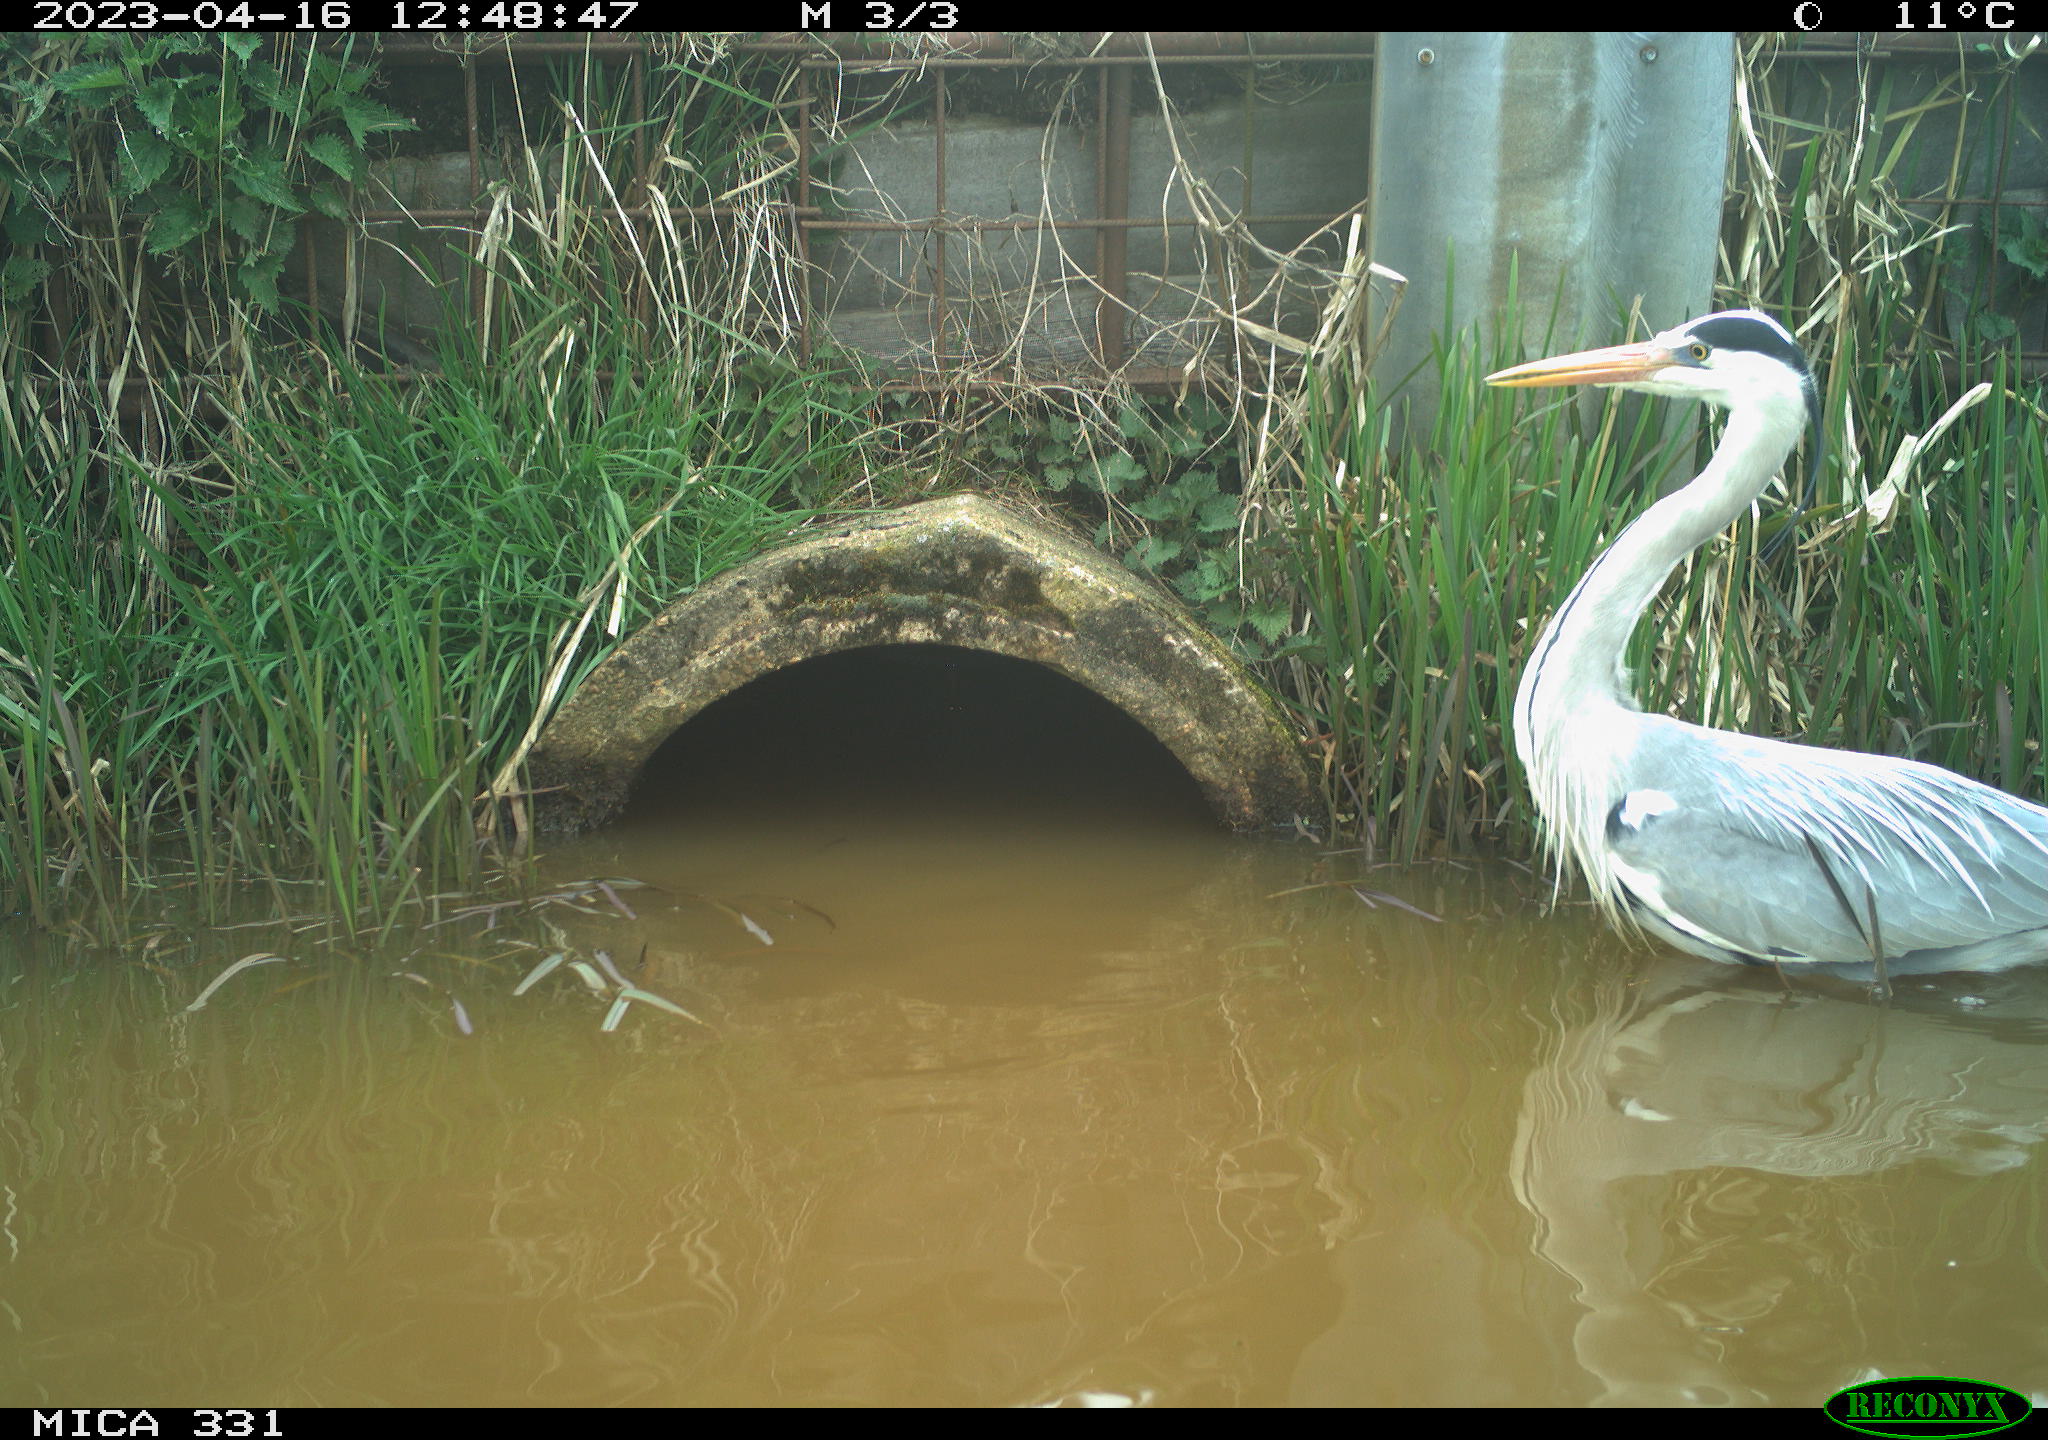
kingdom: Animalia
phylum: Chordata
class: Aves
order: Pelecaniformes
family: Ardeidae
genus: Ardea
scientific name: Ardea cinerea
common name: Grey heron
